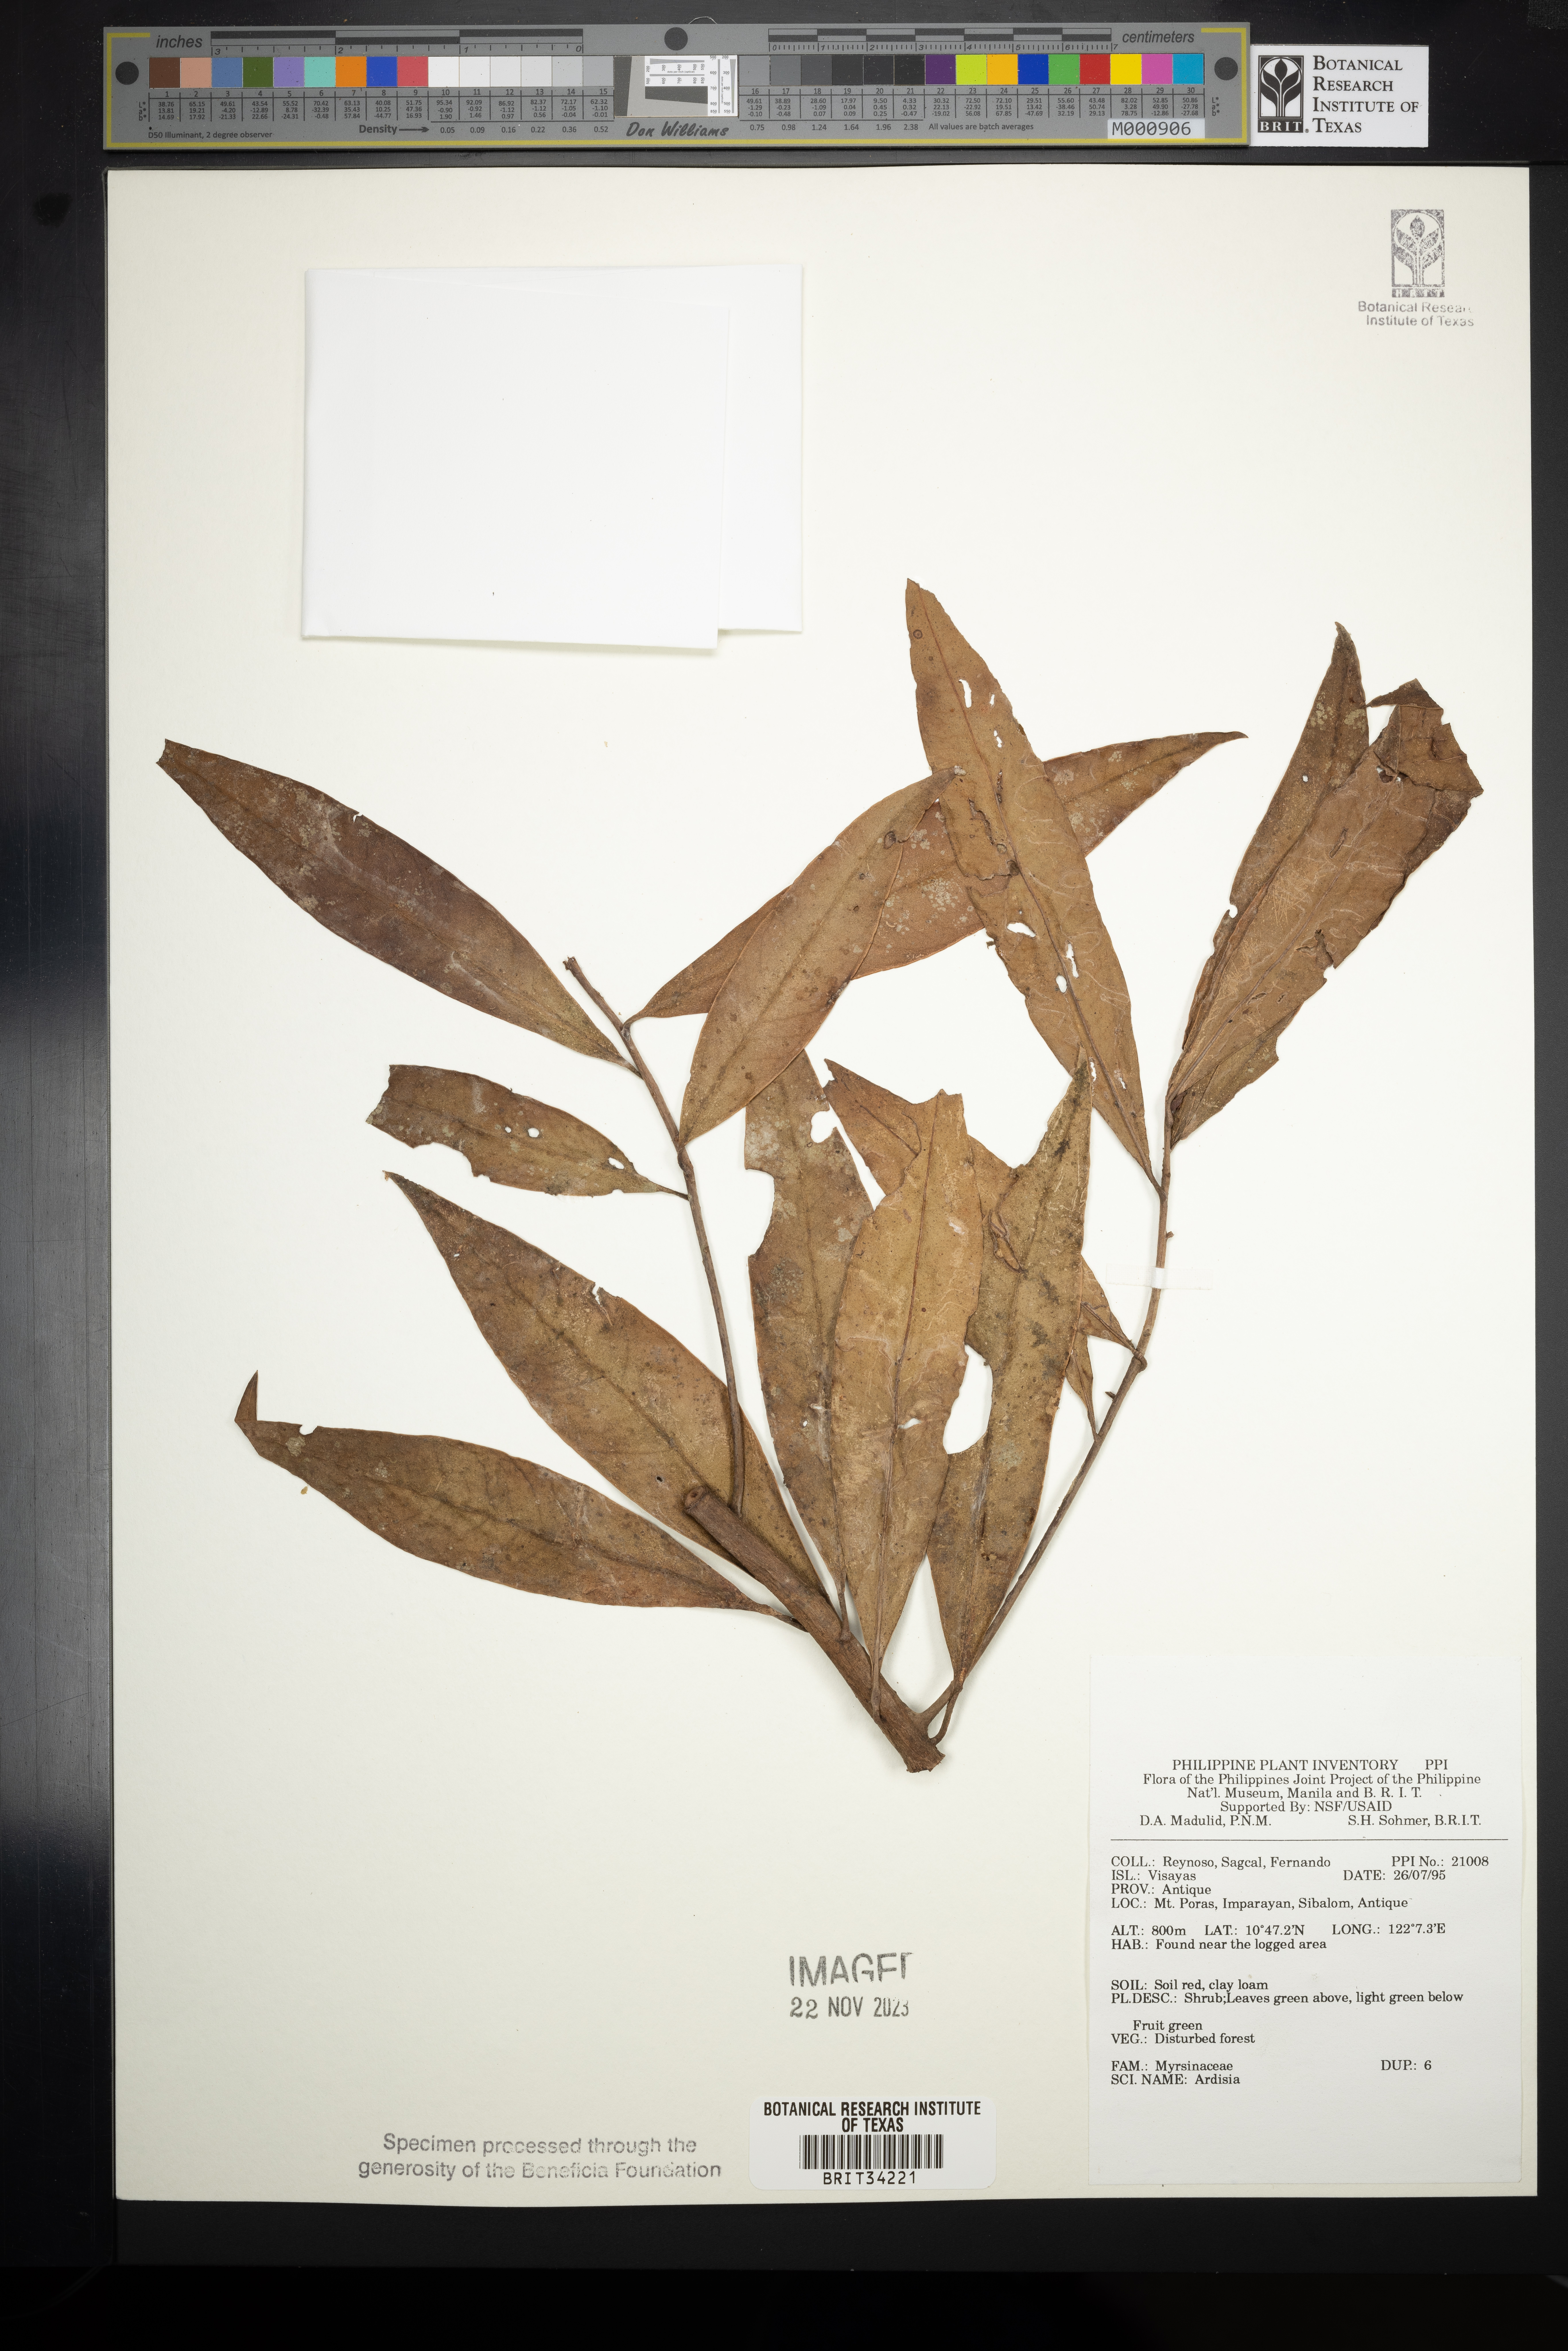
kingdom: Plantae
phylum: Tracheophyta
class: Magnoliopsida
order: Ericales
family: Primulaceae
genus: Ardisia
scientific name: Ardisia
